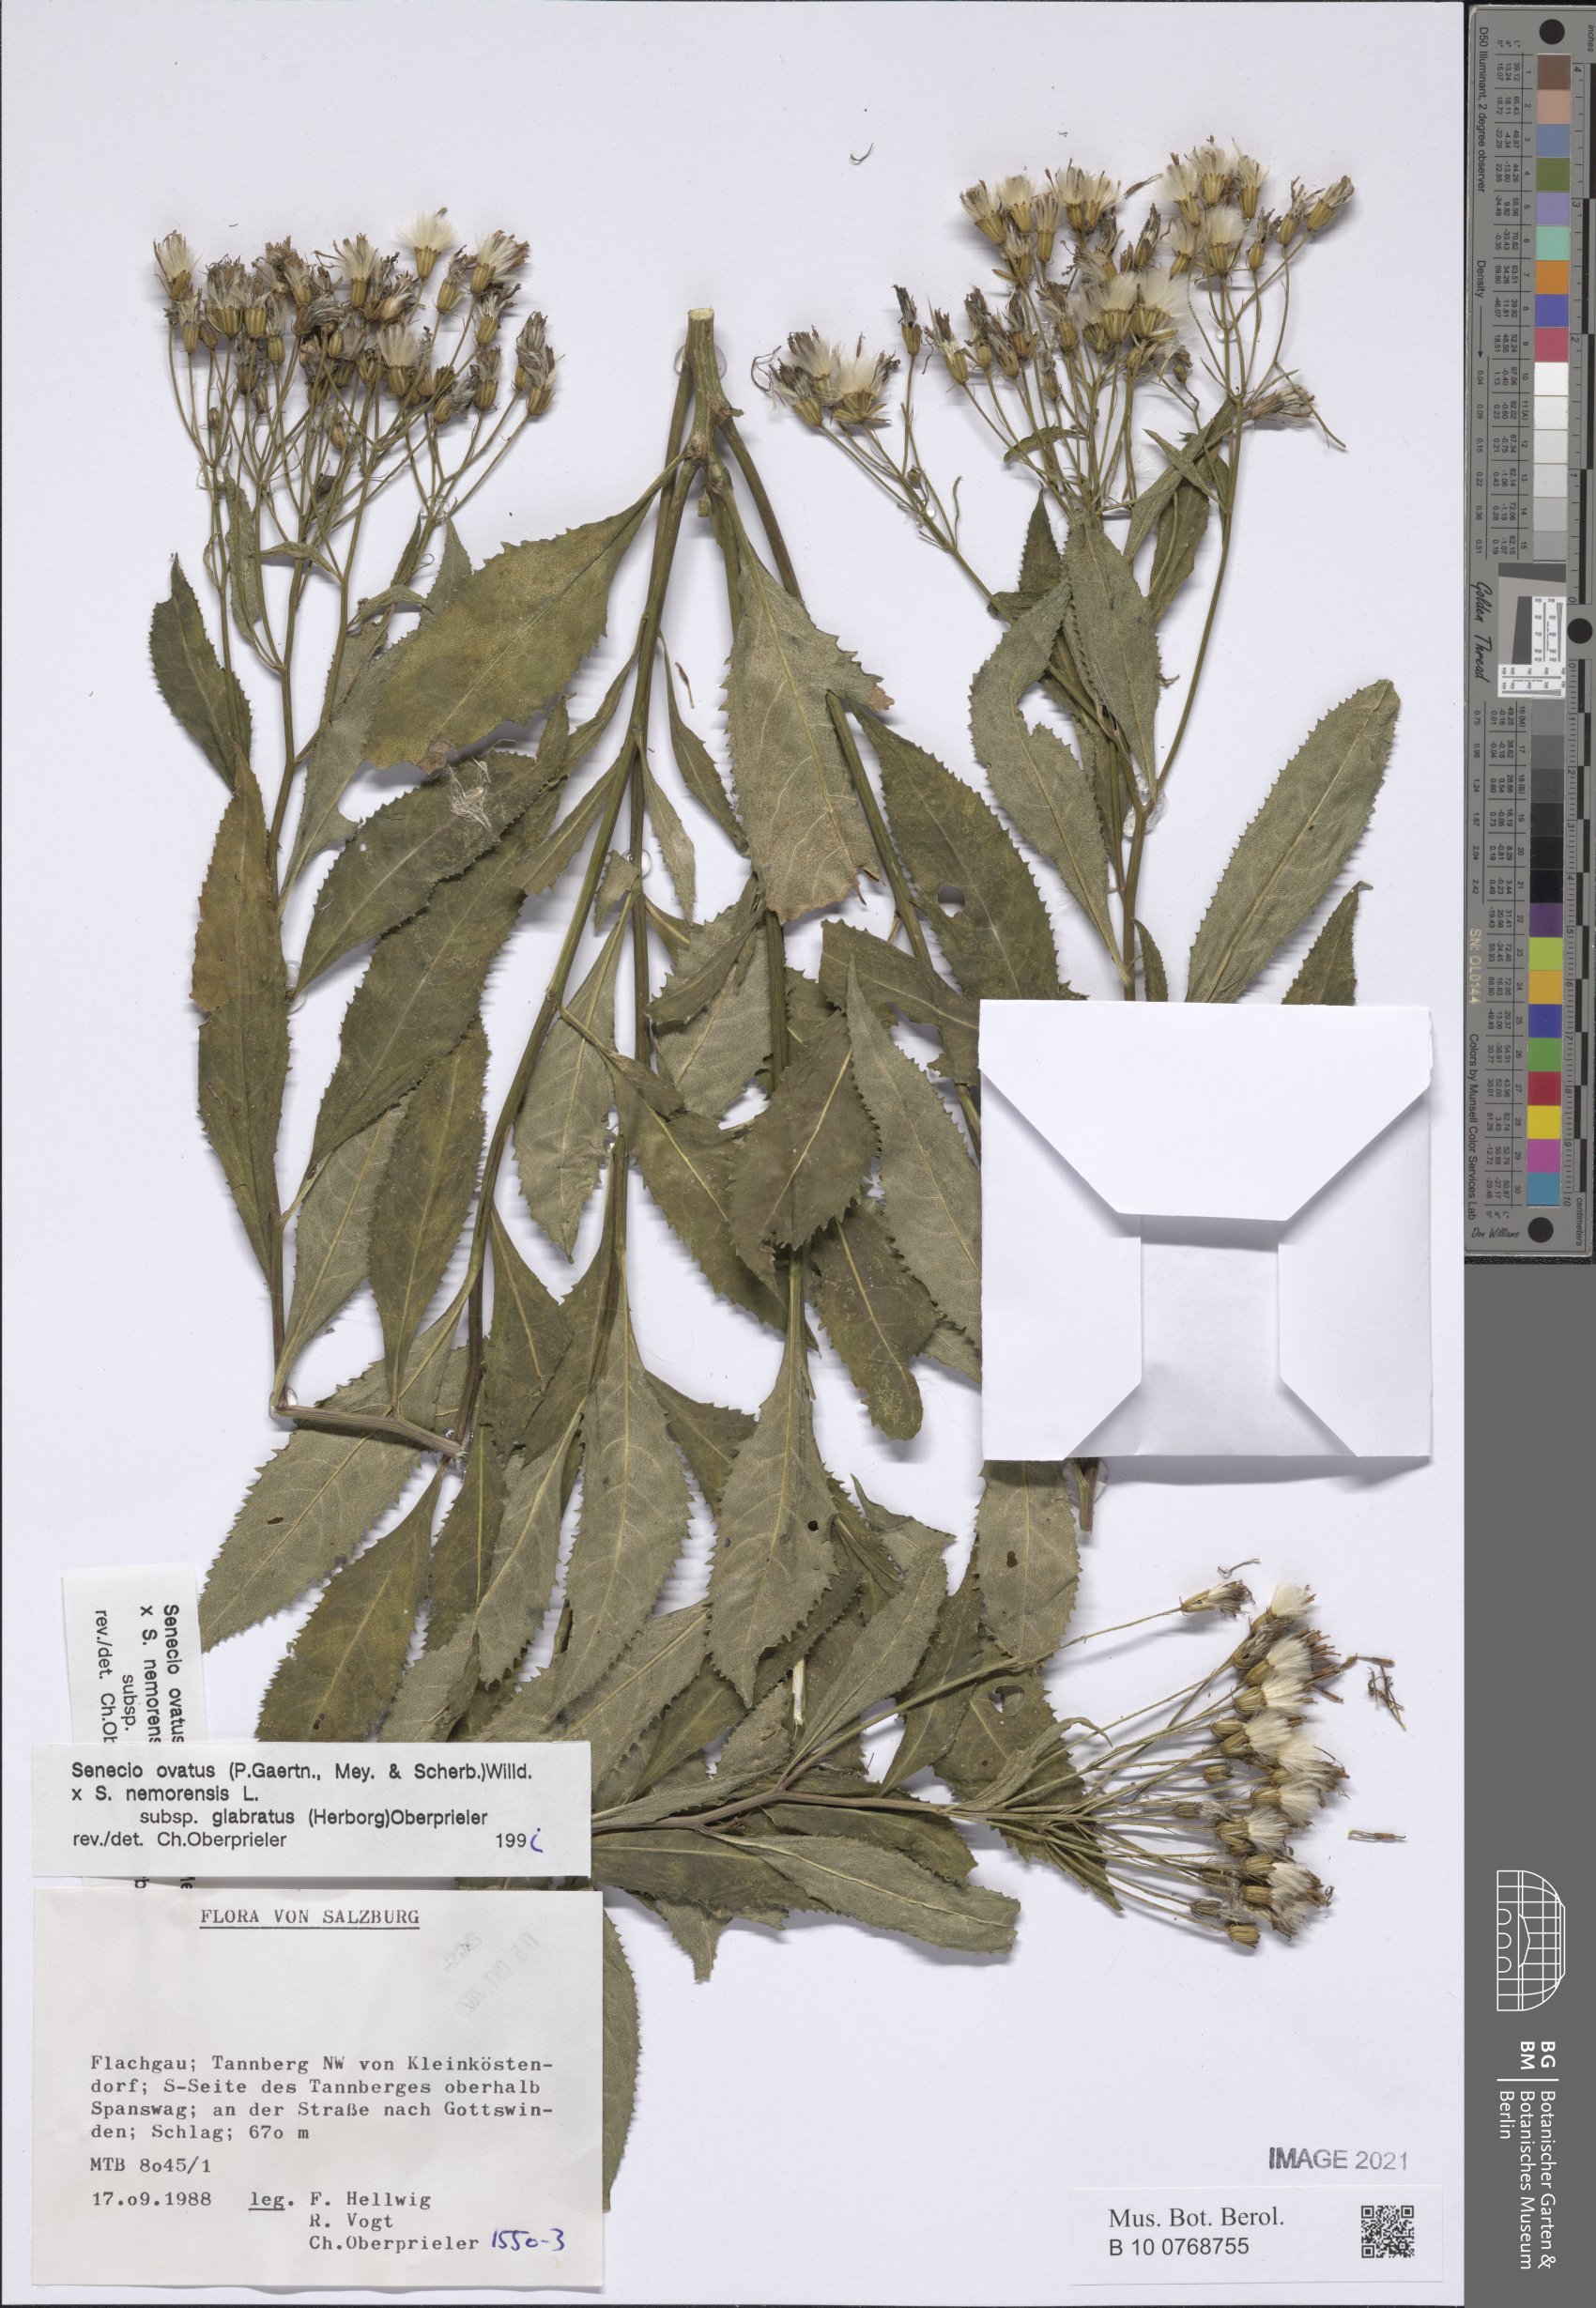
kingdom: Plantae
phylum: Tracheophyta
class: Magnoliopsida
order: Asterales
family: Asteraceae
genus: Senecio
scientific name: Senecio ovatus
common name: Wood ragwort
